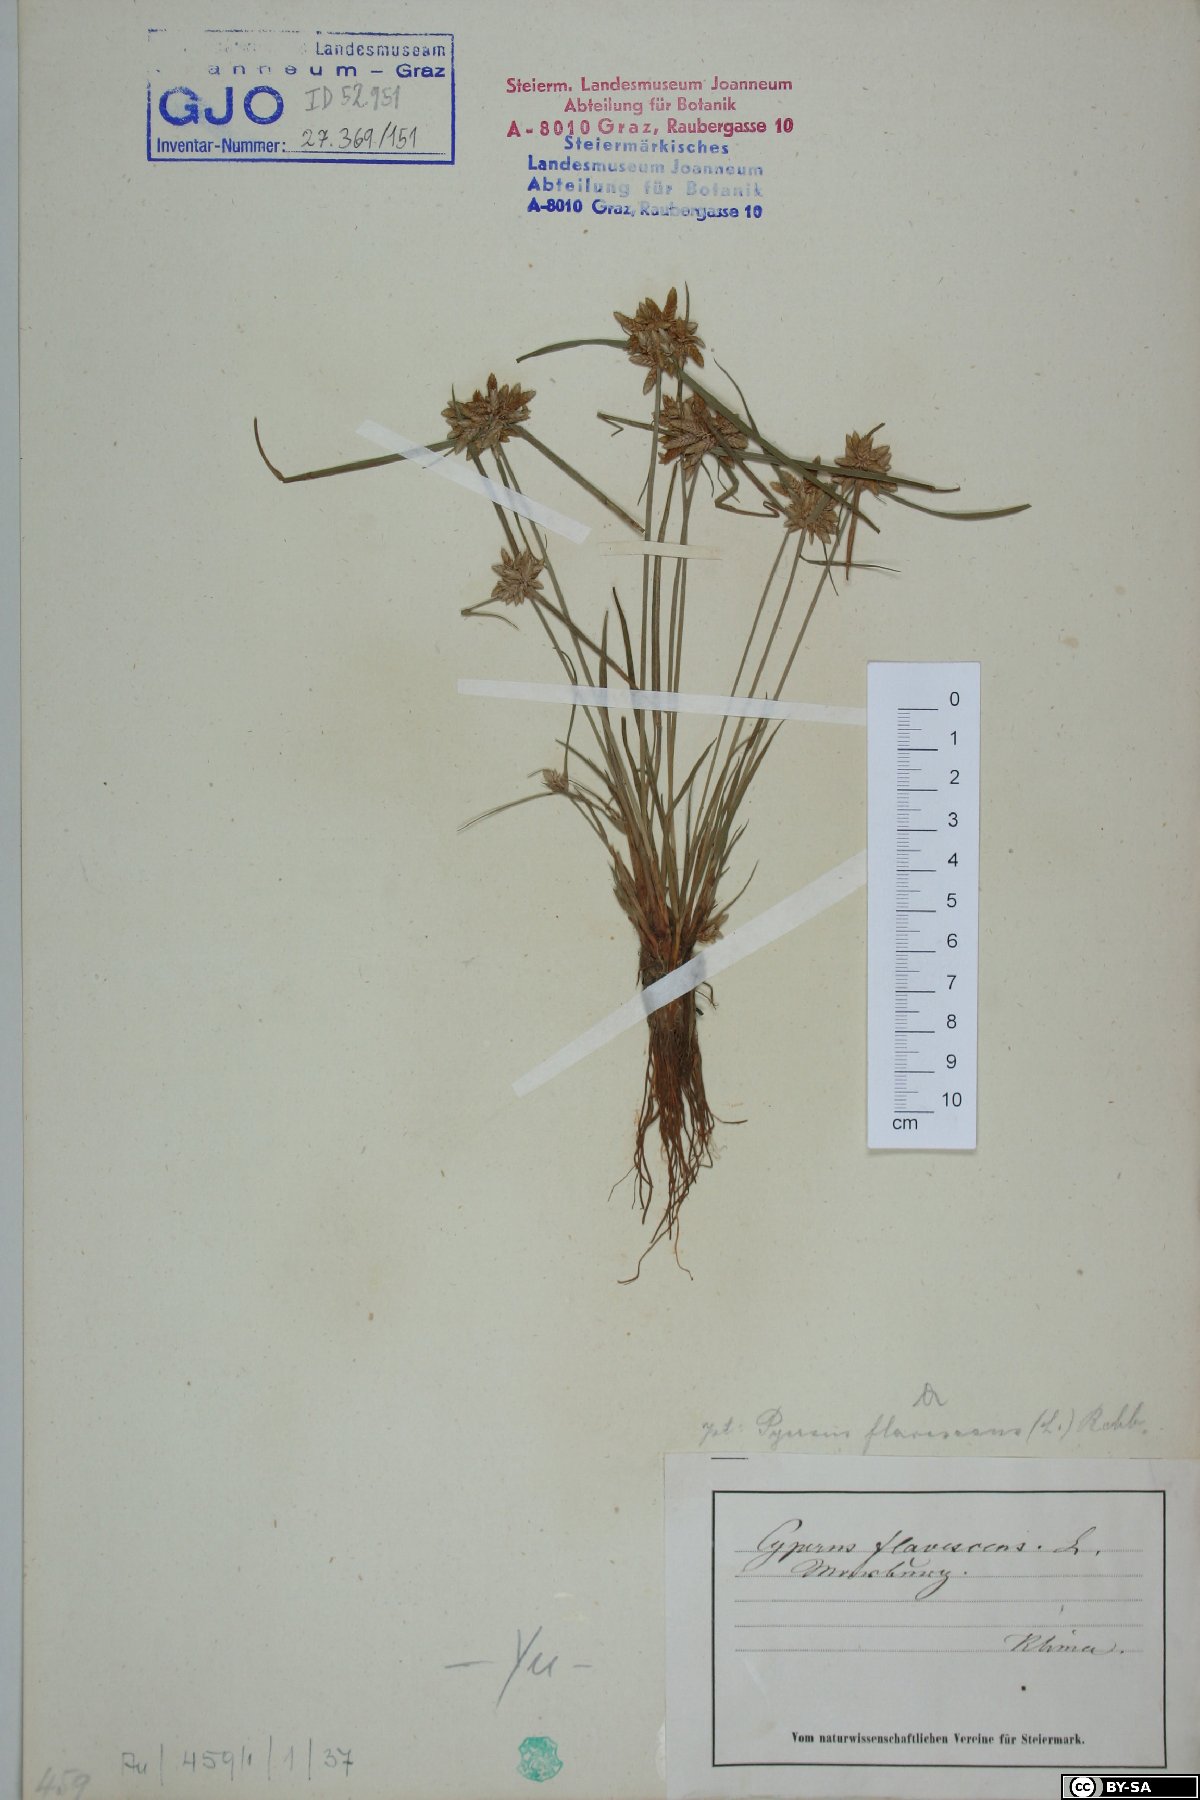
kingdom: Plantae
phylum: Tracheophyta
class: Liliopsida
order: Poales
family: Cyperaceae
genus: Cyperus
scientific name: Cyperus flavescens
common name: Yellow galingale
